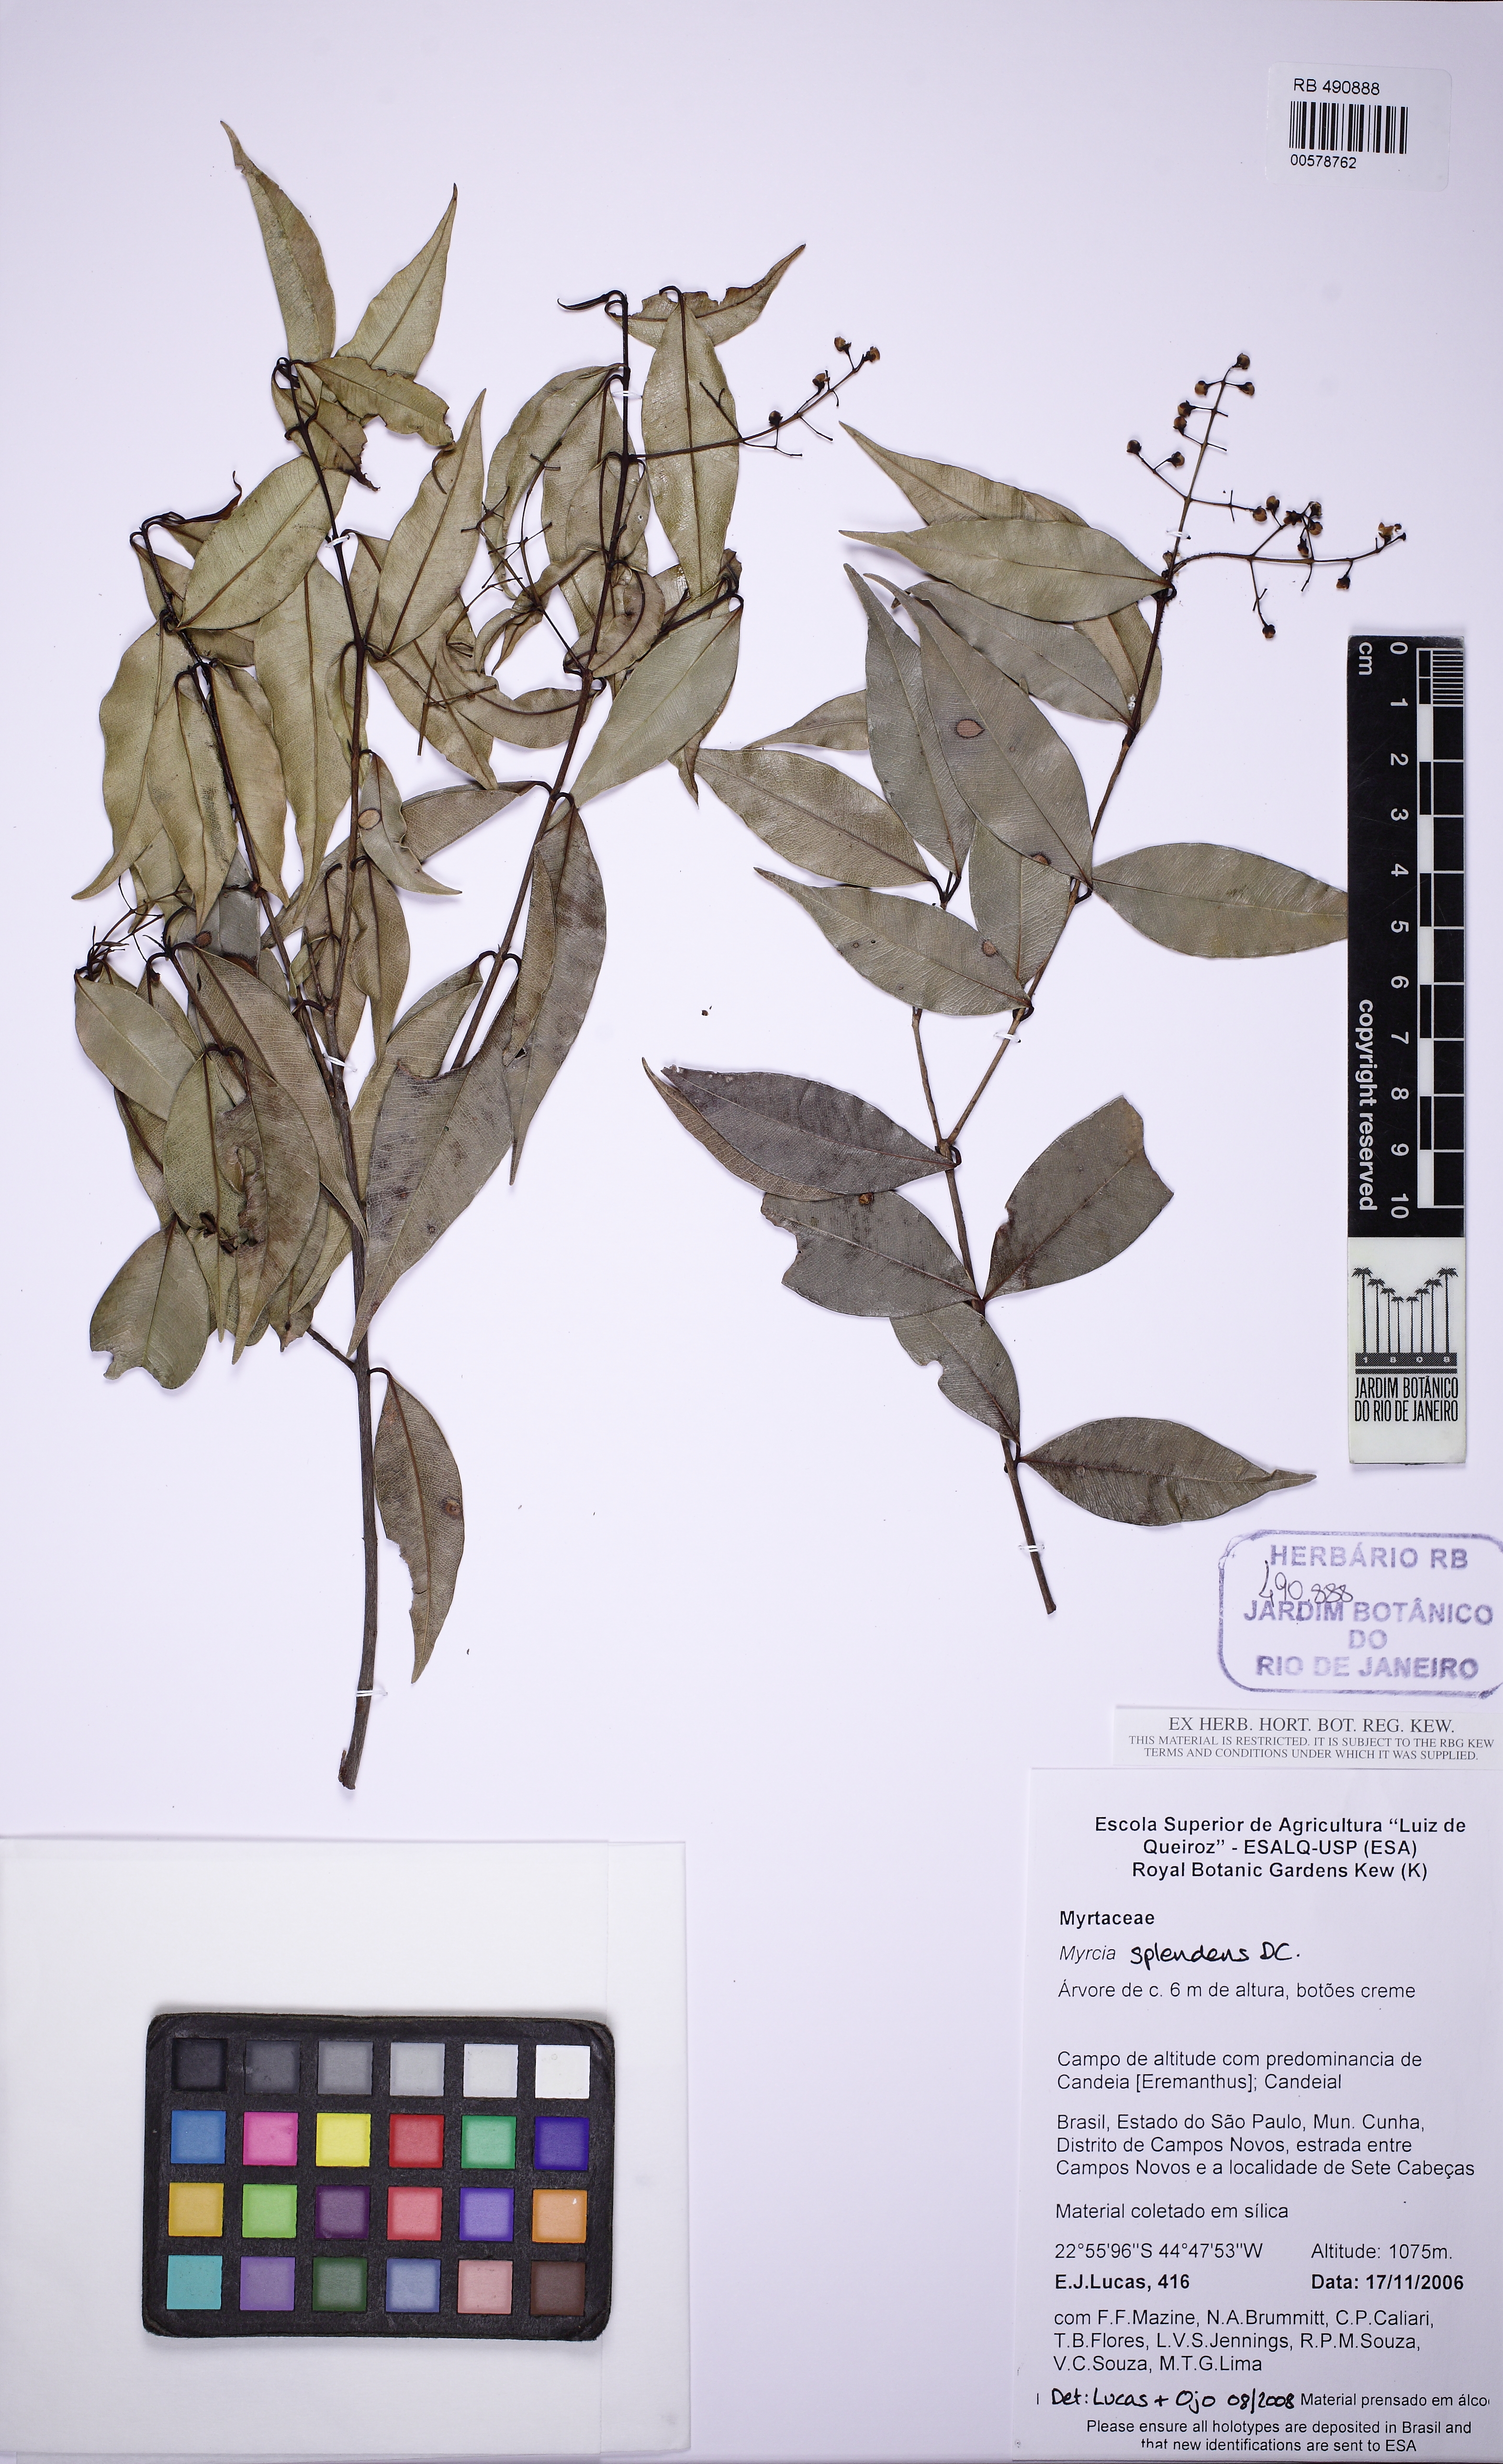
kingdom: Plantae
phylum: Tracheophyta
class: Magnoliopsida
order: Myrtales
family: Myrtaceae
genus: Myrcia
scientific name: Myrcia splendens
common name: Surinam cherry
